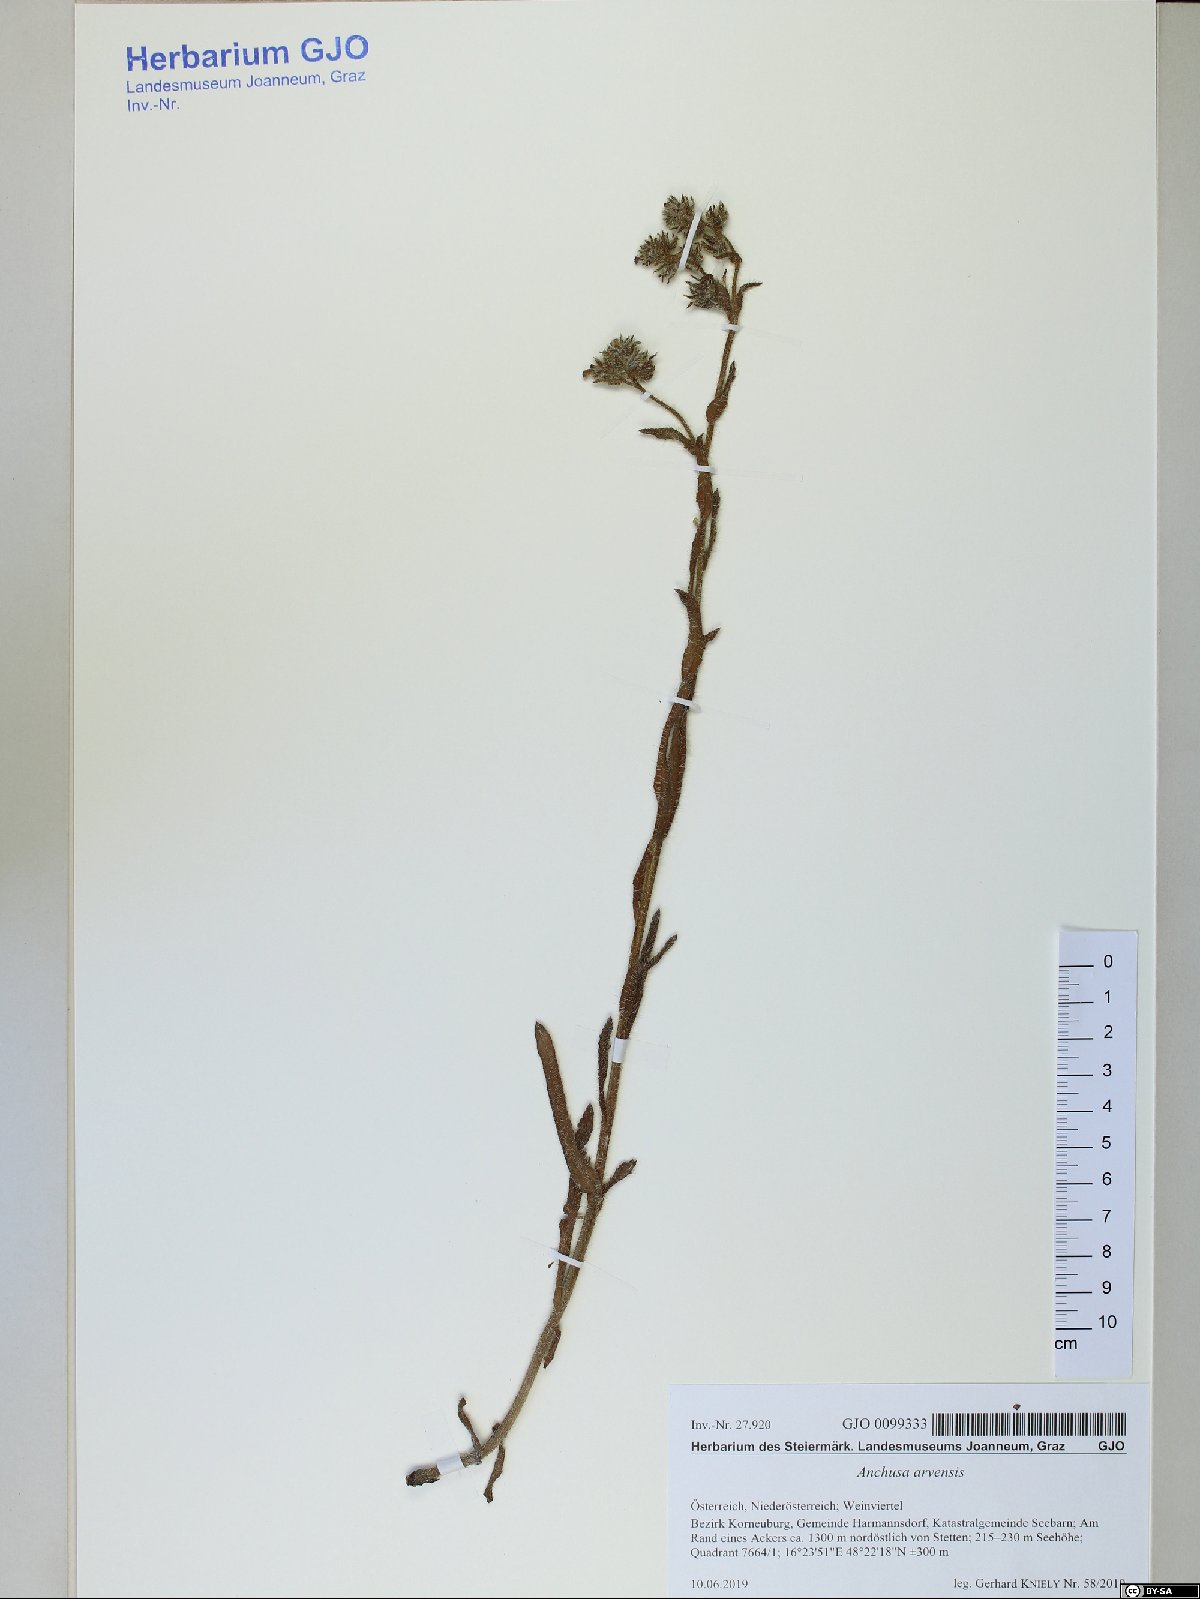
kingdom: Plantae
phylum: Tracheophyta
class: Magnoliopsida
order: Boraginales
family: Boraginaceae
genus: Lycopsis
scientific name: Lycopsis arvensis
